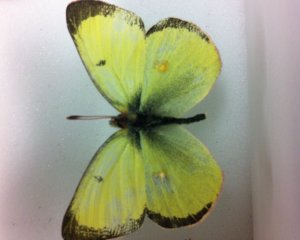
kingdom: Animalia
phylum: Arthropoda
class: Insecta
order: Lepidoptera
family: Pieridae
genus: Colias
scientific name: Colias philodice
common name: Clouded Sulphur
